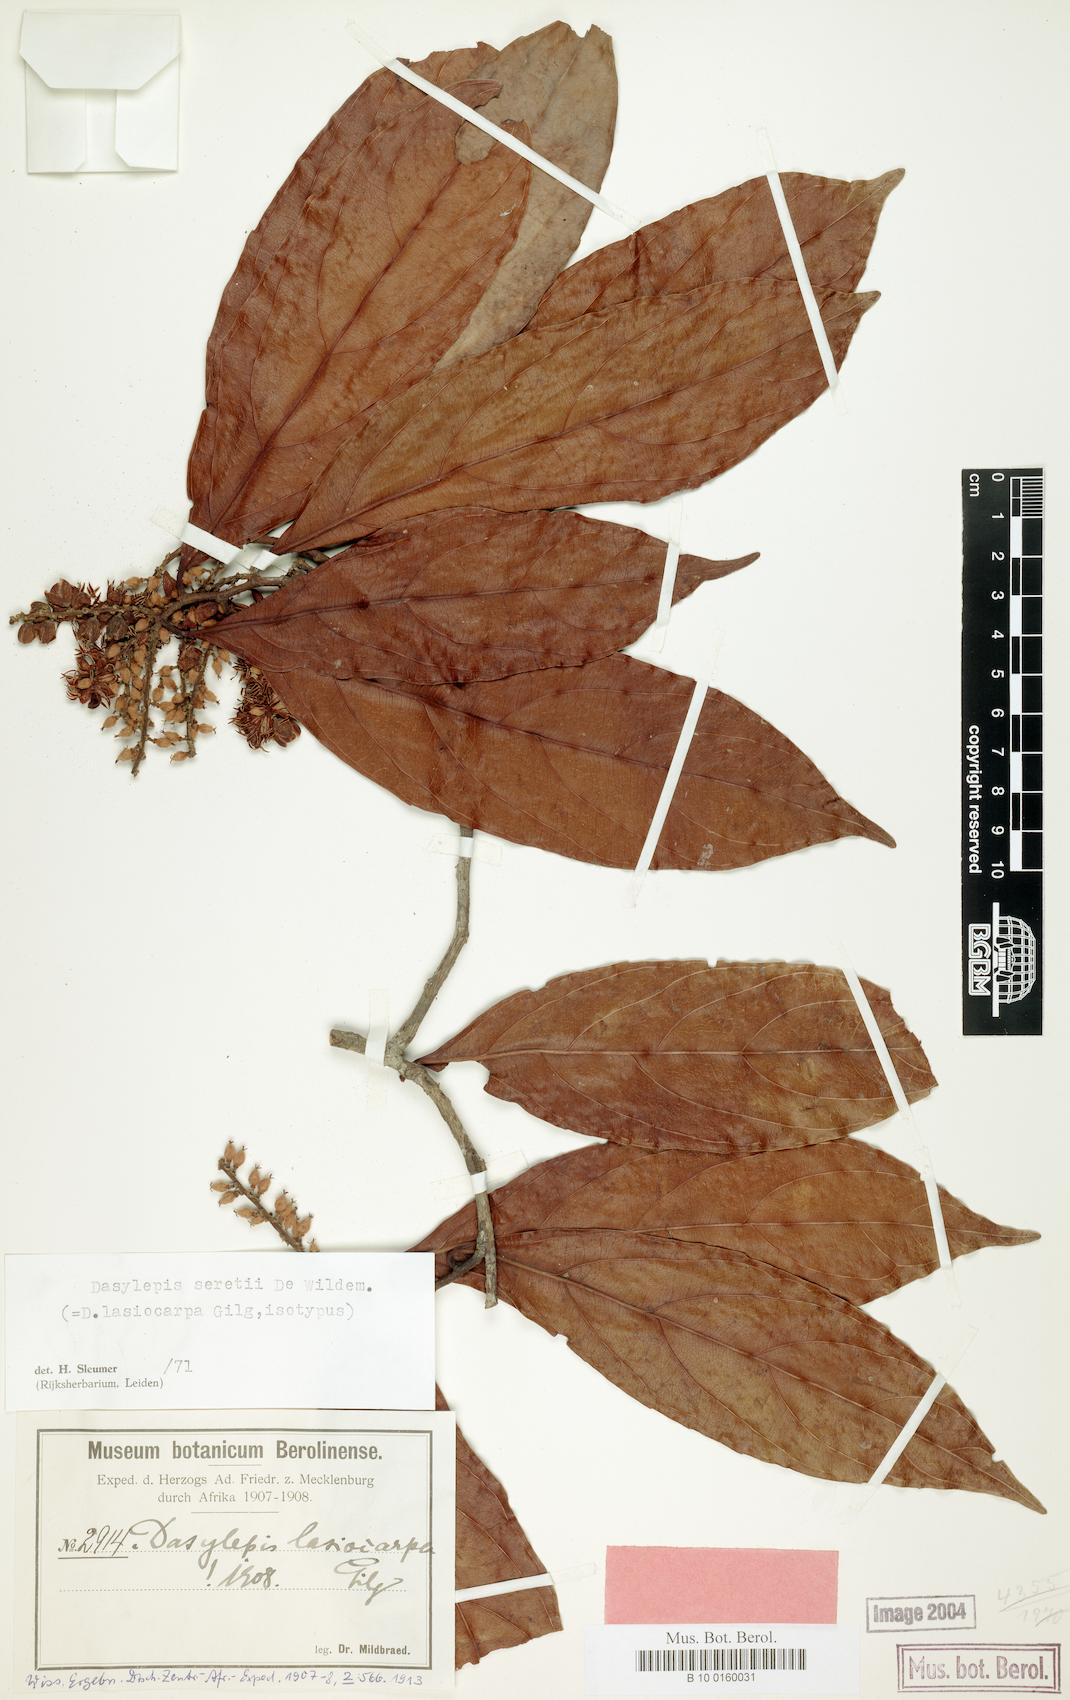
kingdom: Plantae
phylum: Tracheophyta
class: Magnoliopsida
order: Malpighiales
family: Achariaceae
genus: Dasylepis
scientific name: Dasylepis seretii
